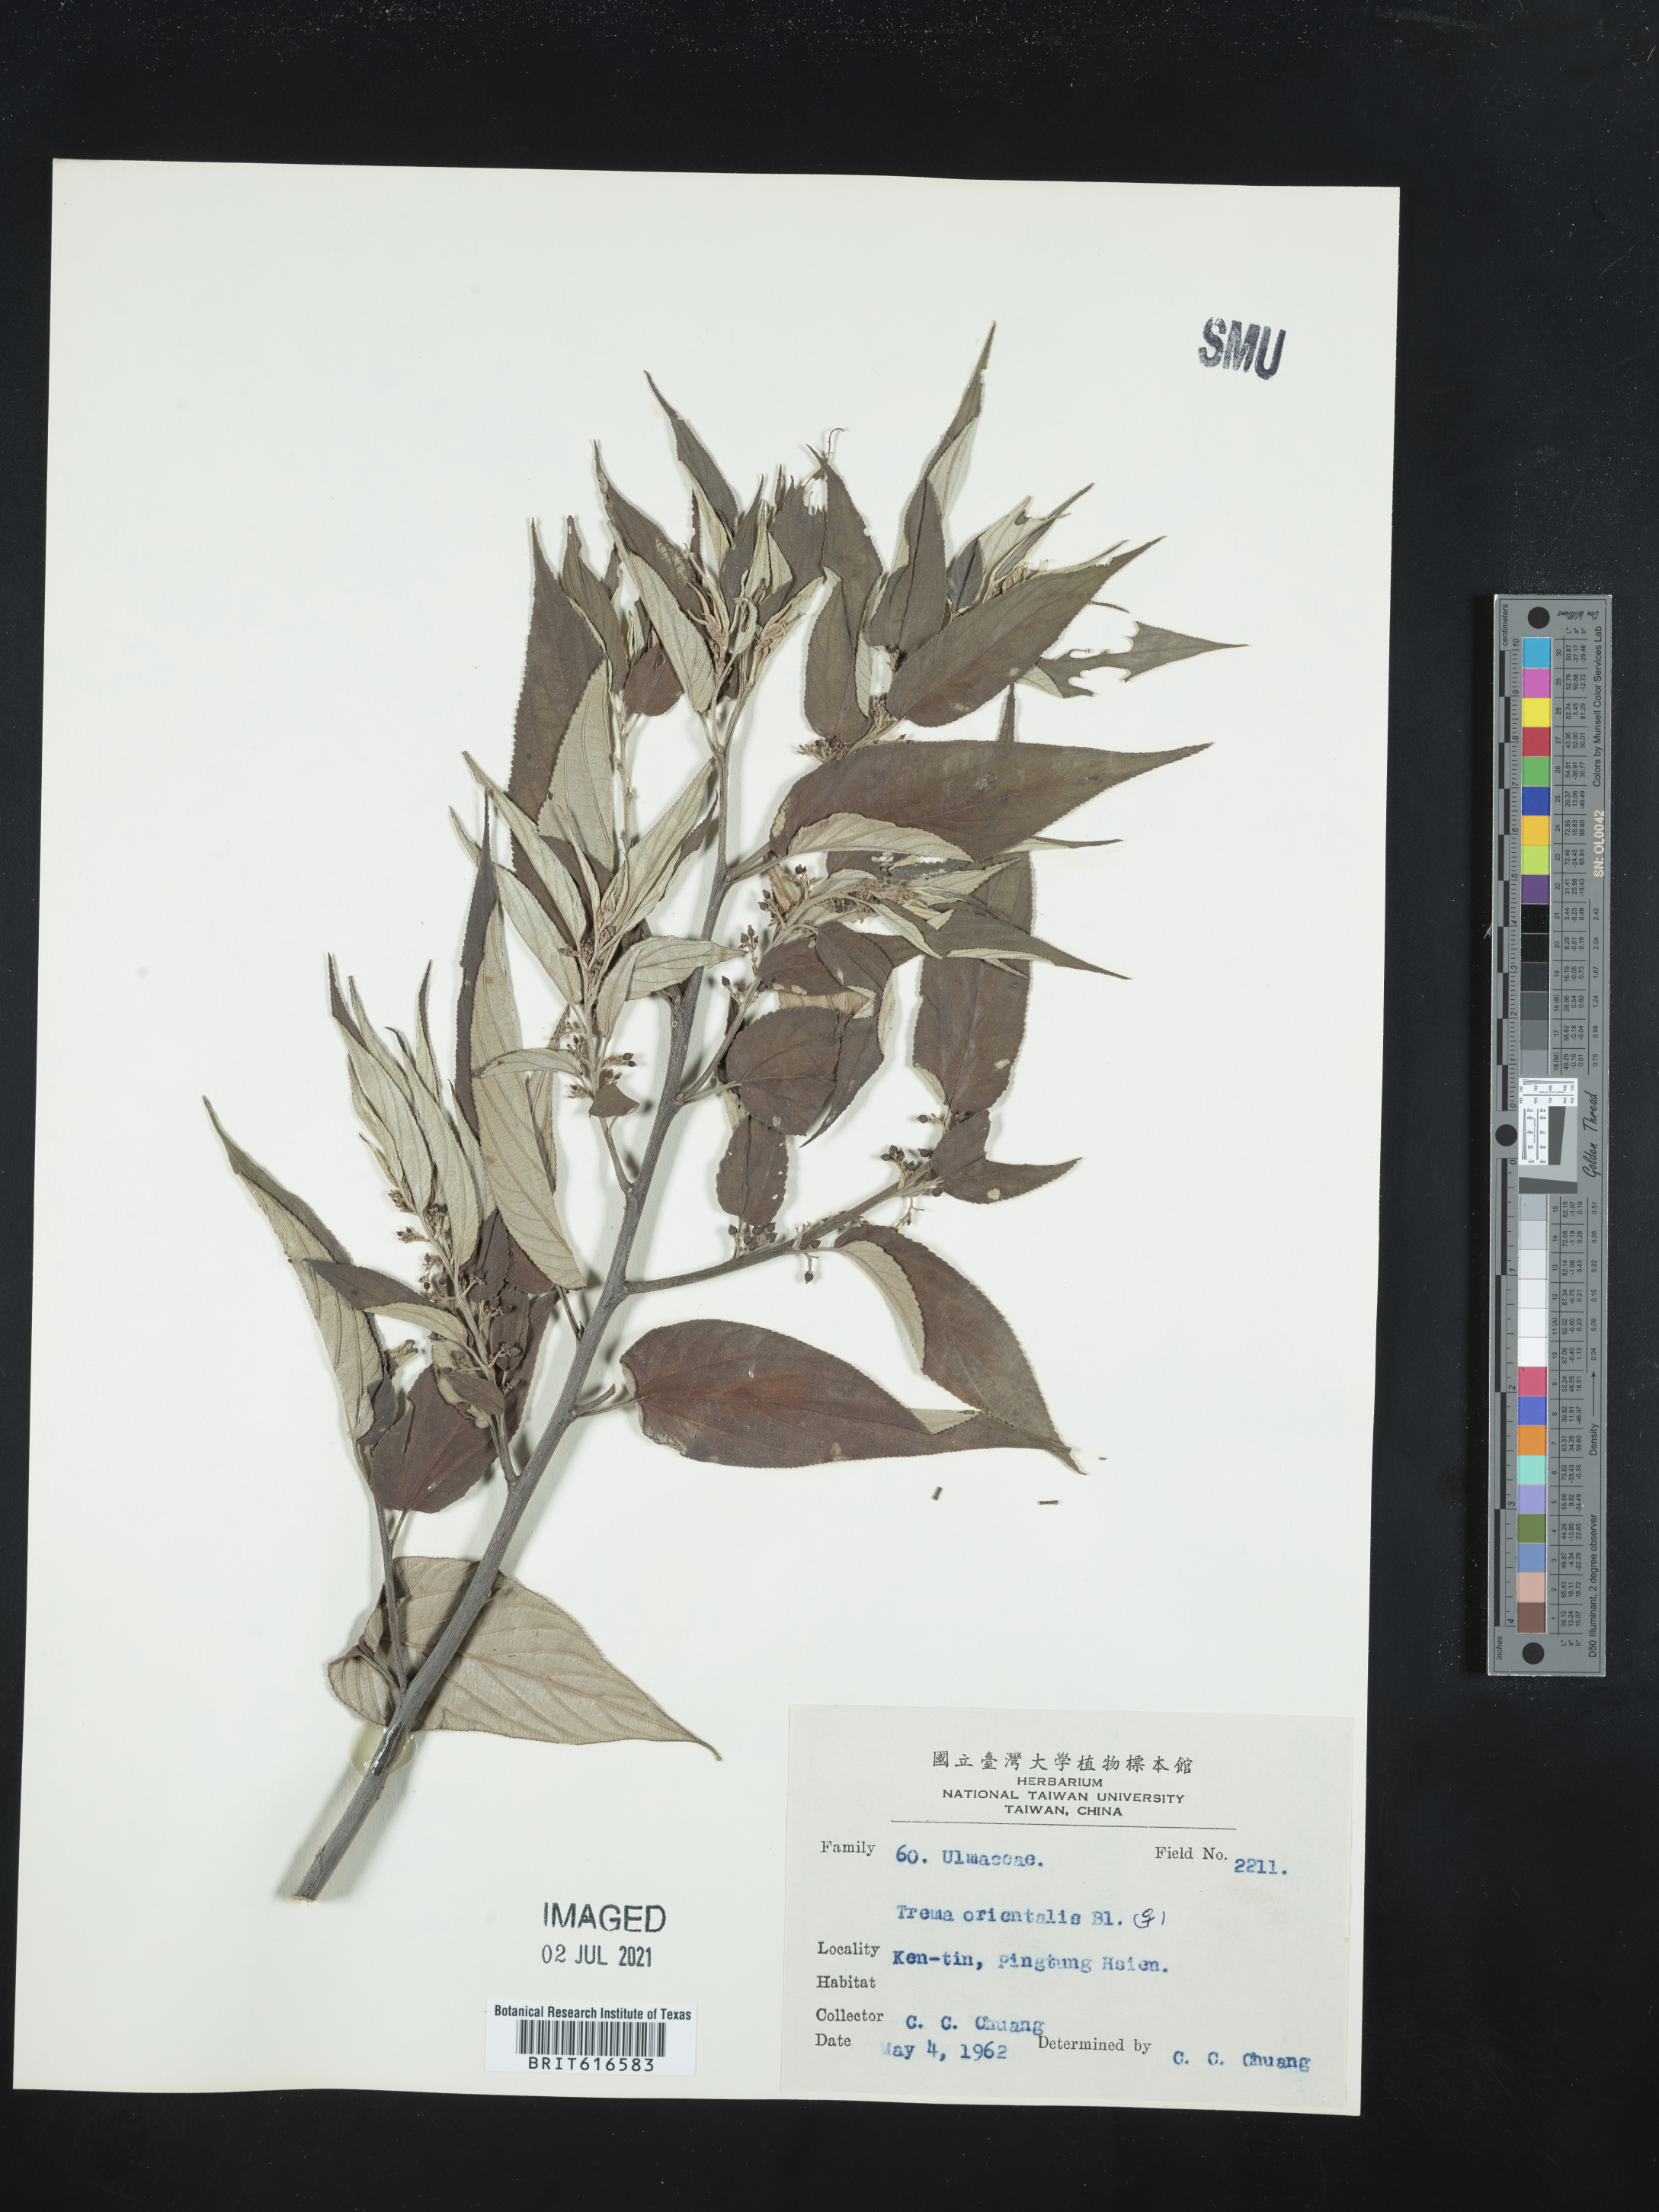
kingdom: Plantae
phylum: Tracheophyta
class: Magnoliopsida
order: Rosales
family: Cannabaceae
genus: Trema
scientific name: Trema orientale
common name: Indian charcoal tree
